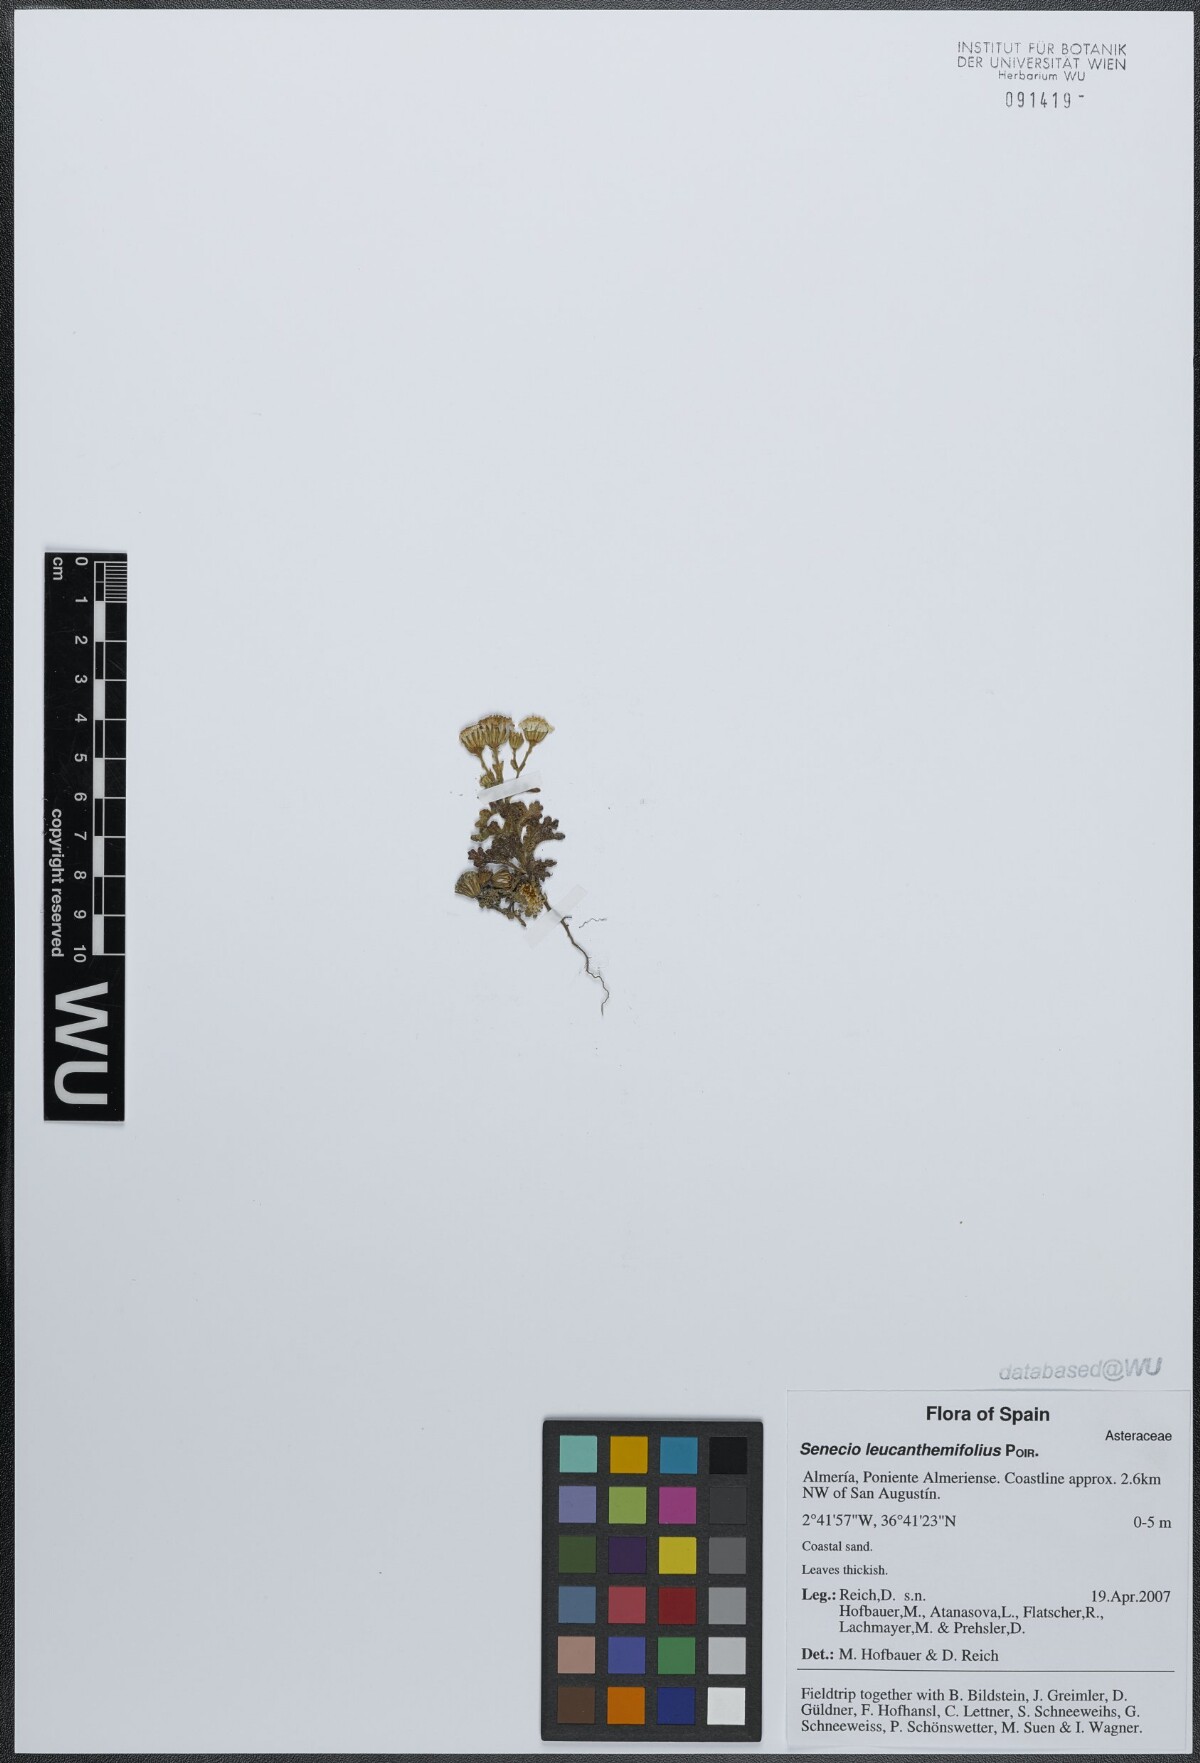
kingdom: Plantae
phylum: Tracheophyta
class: Magnoliopsida
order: Asterales
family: Asteraceae
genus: Senecio
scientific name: Senecio leucanthemifolius
